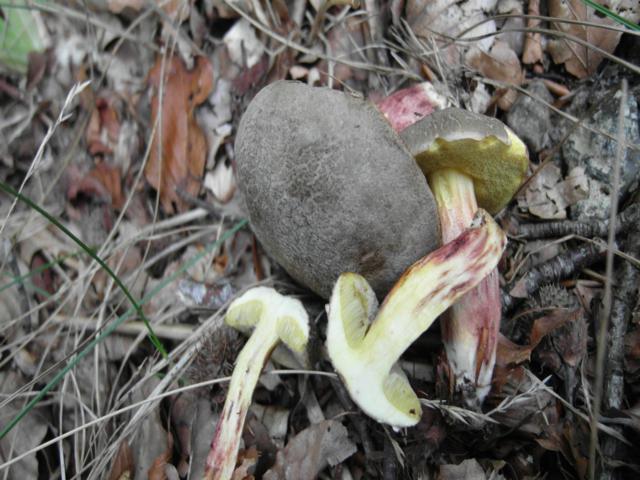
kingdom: Fungi
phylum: Basidiomycota
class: Agaricomycetes
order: Boletales
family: Boletaceae
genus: Xerocomellus
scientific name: Xerocomellus chrysenteron
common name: rødsprukken rørhat
